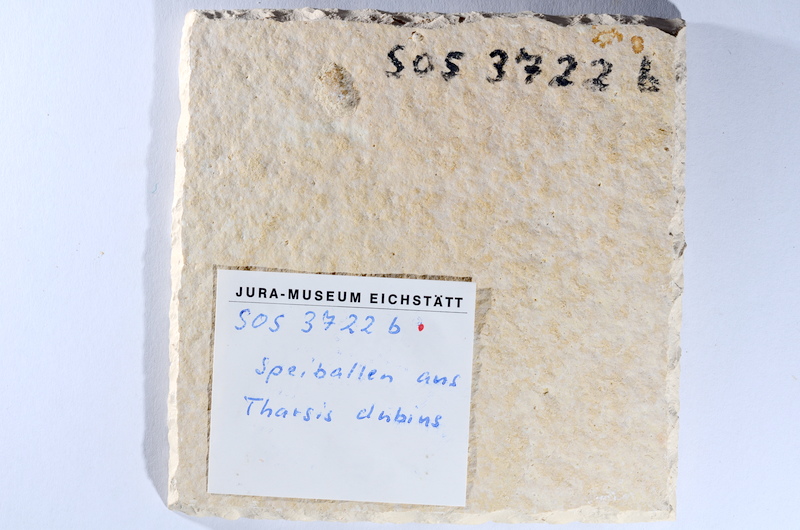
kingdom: Animalia
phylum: Chordata
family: Ascalaboidae
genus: Tharsis
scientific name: Tharsis dubius
